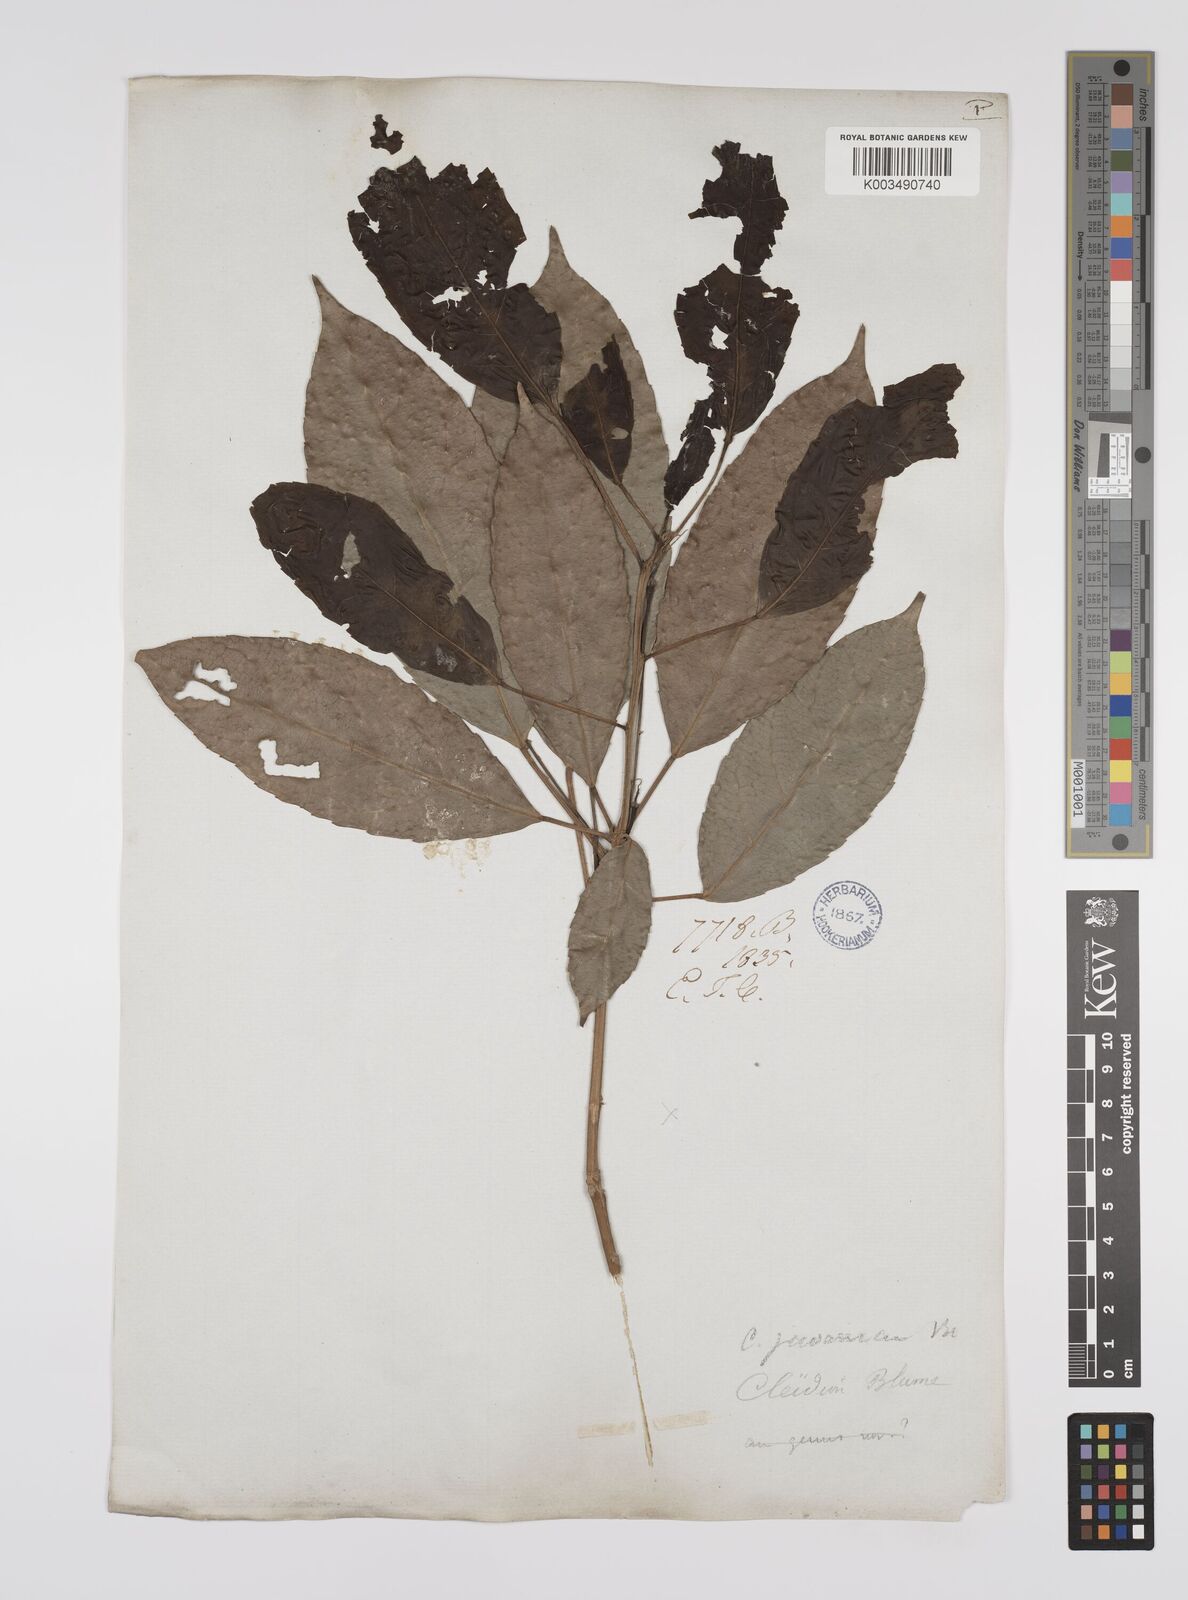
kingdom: Plantae
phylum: Tracheophyta
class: Magnoliopsida
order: Malpighiales
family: Euphorbiaceae
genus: Acalypha
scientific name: Acalypha spiciflora
